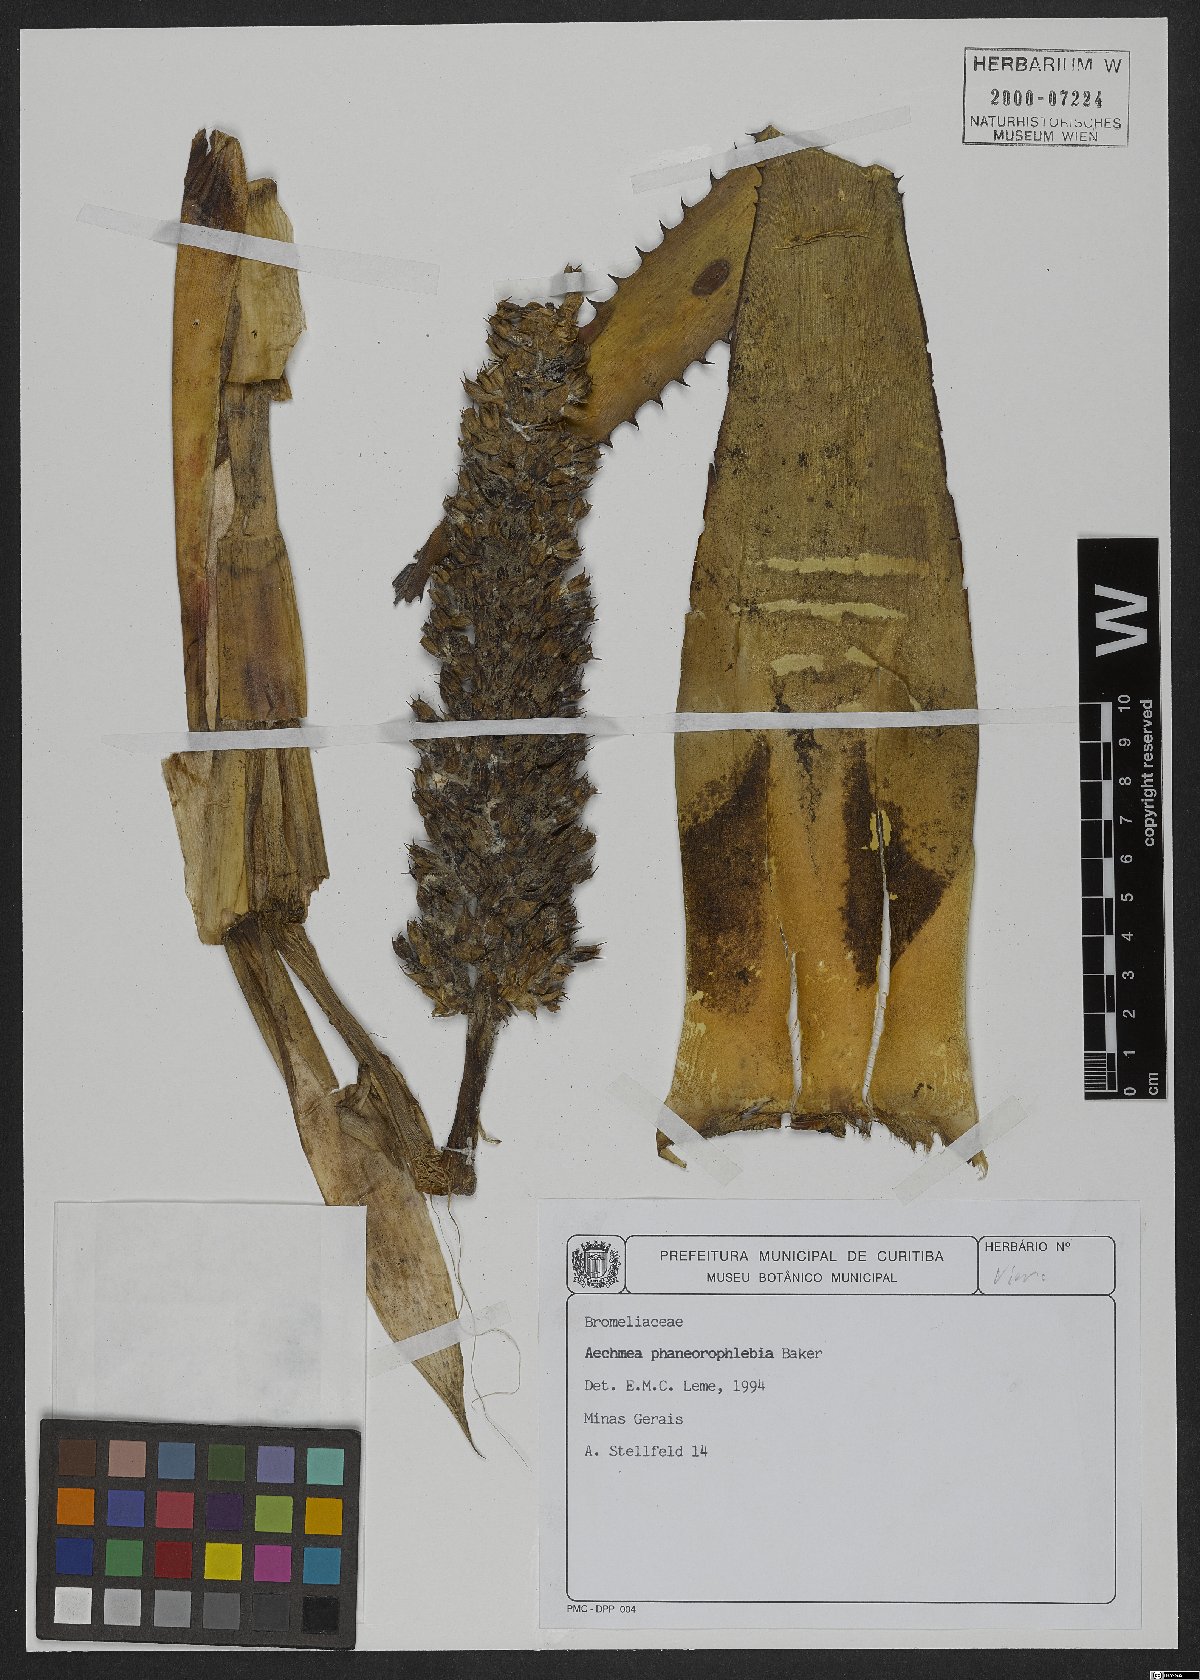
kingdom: Plantae
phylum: Tracheophyta
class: Liliopsida
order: Poales
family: Bromeliaceae
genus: Aechmea
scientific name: Aechmea phanerophlebia
